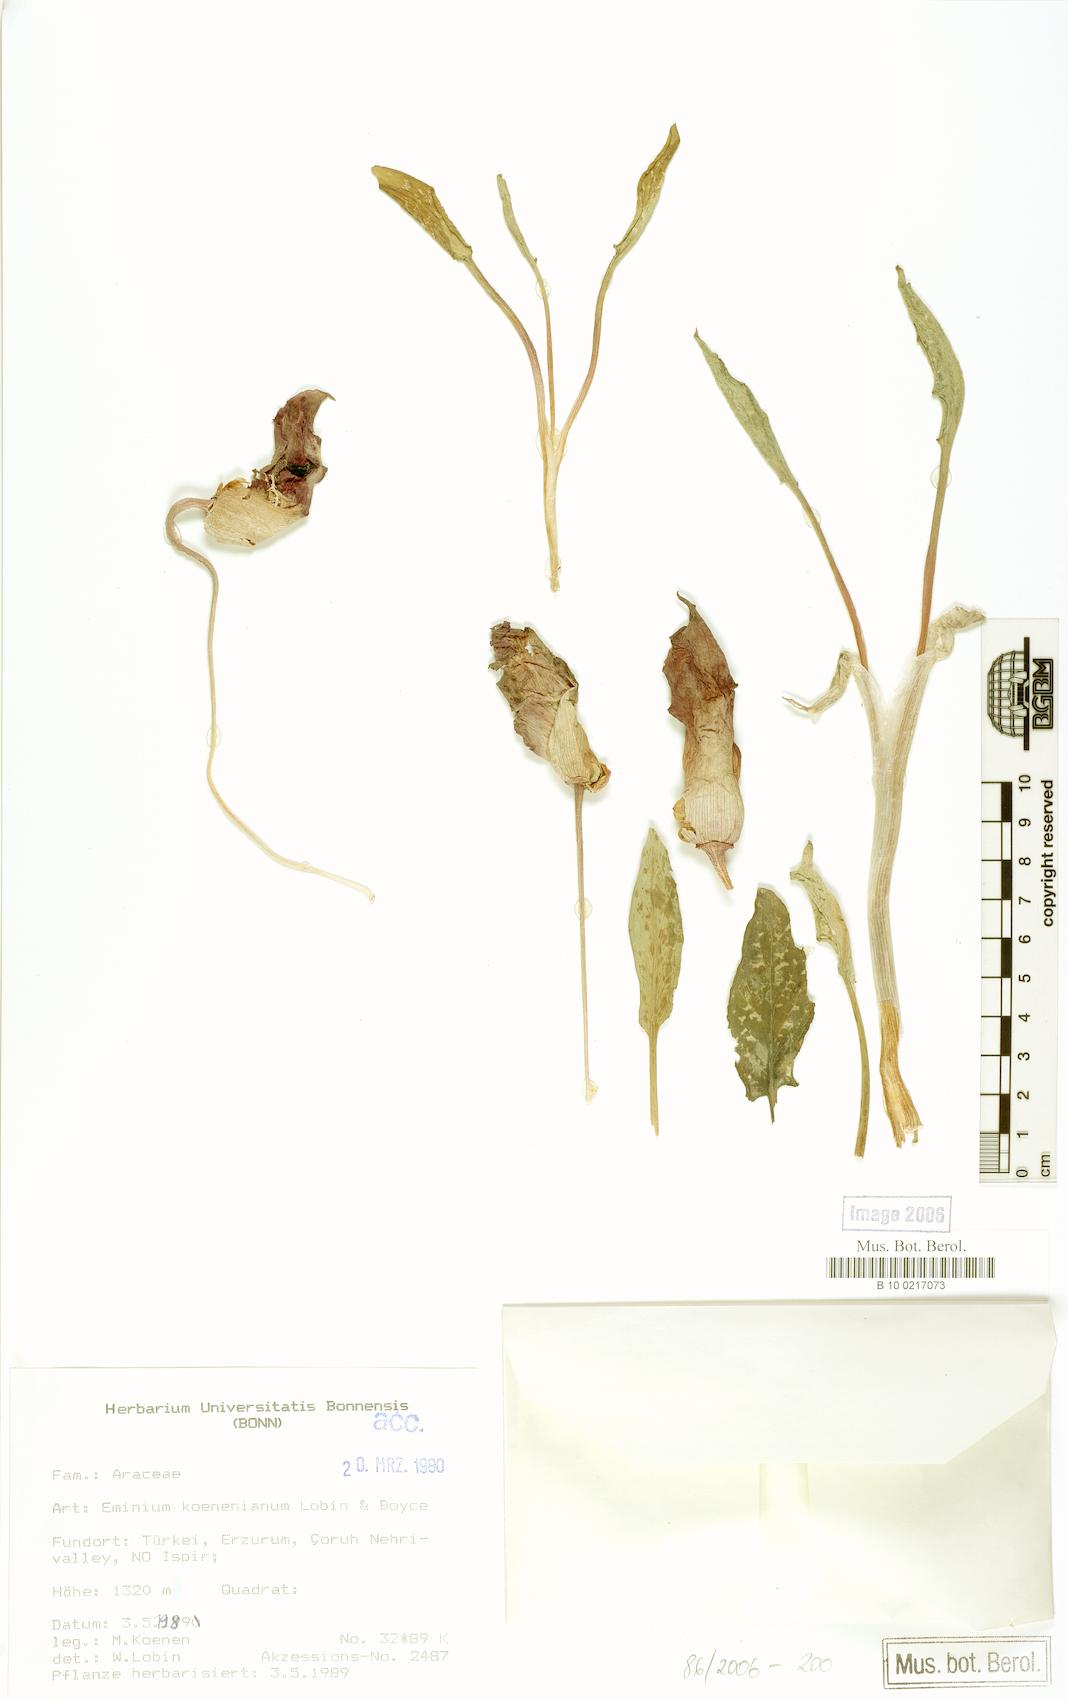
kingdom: Plantae
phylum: Tracheophyta
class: Liliopsida
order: Alismatales
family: Araceae
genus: Eminium
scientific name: Eminium koenenianum
